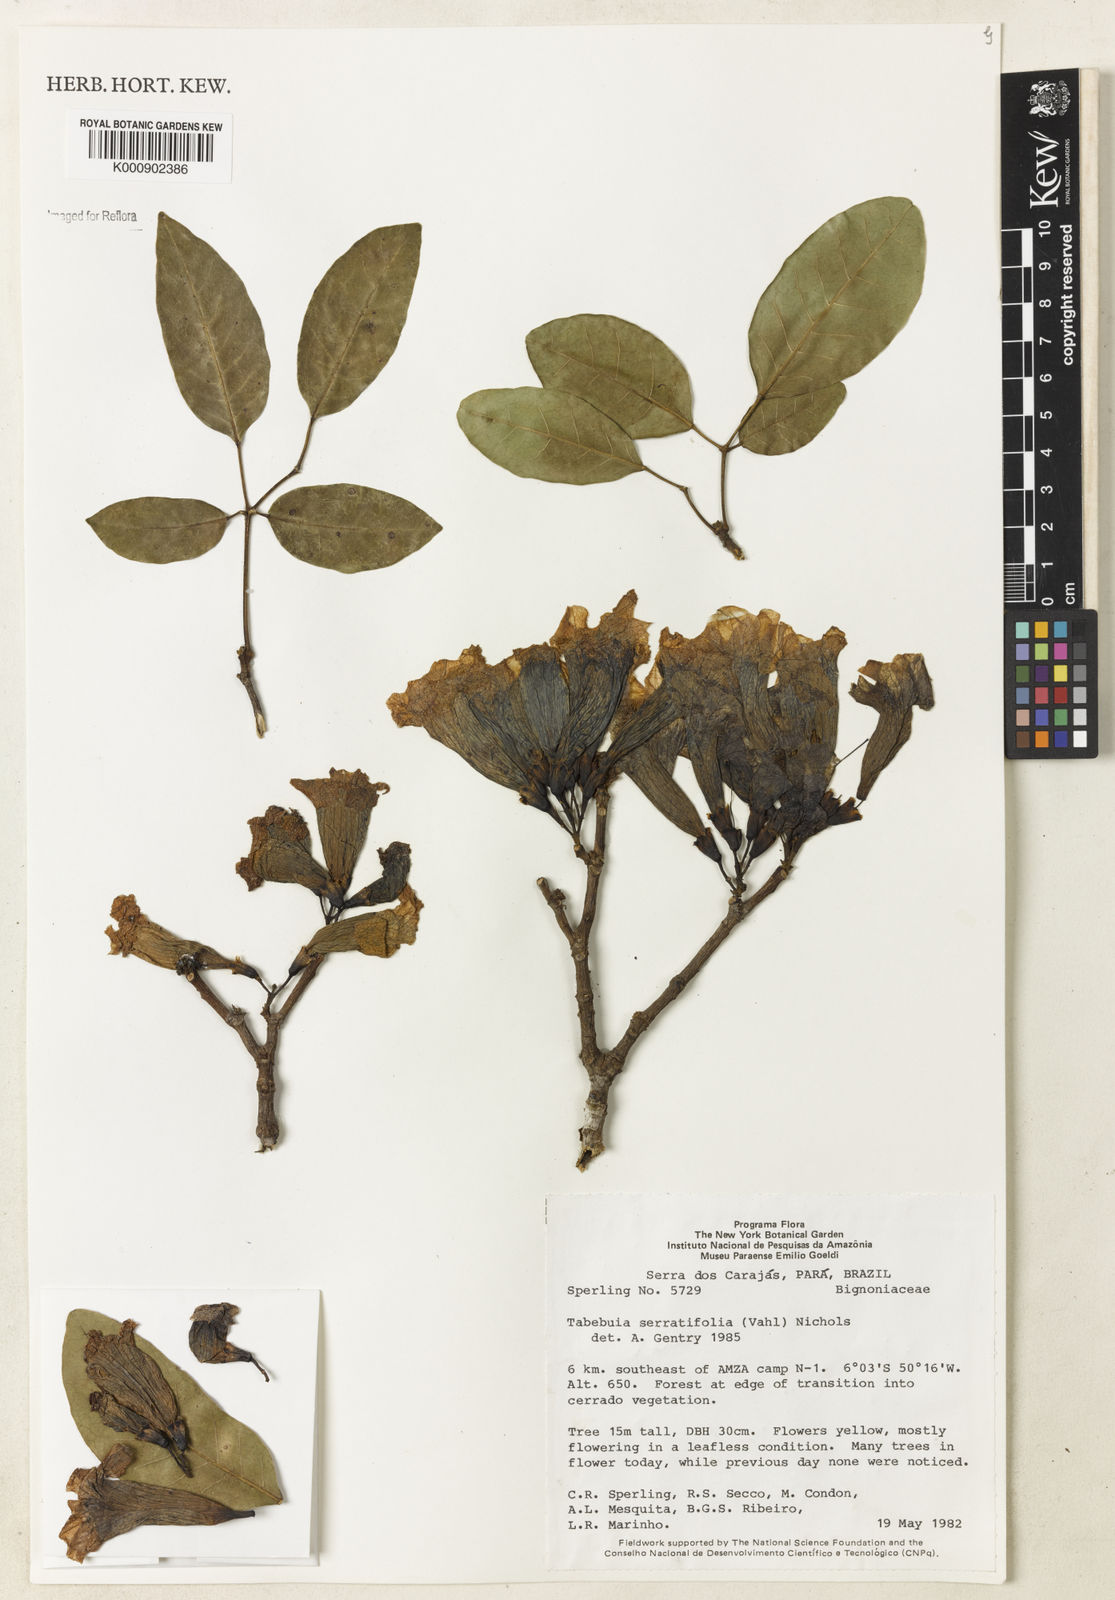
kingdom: Plantae
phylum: Tracheophyta
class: Magnoliopsida
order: Lamiales
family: Bignoniaceae
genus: Handroanthus
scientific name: Handroanthus serratifolius
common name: Yellow ipe
